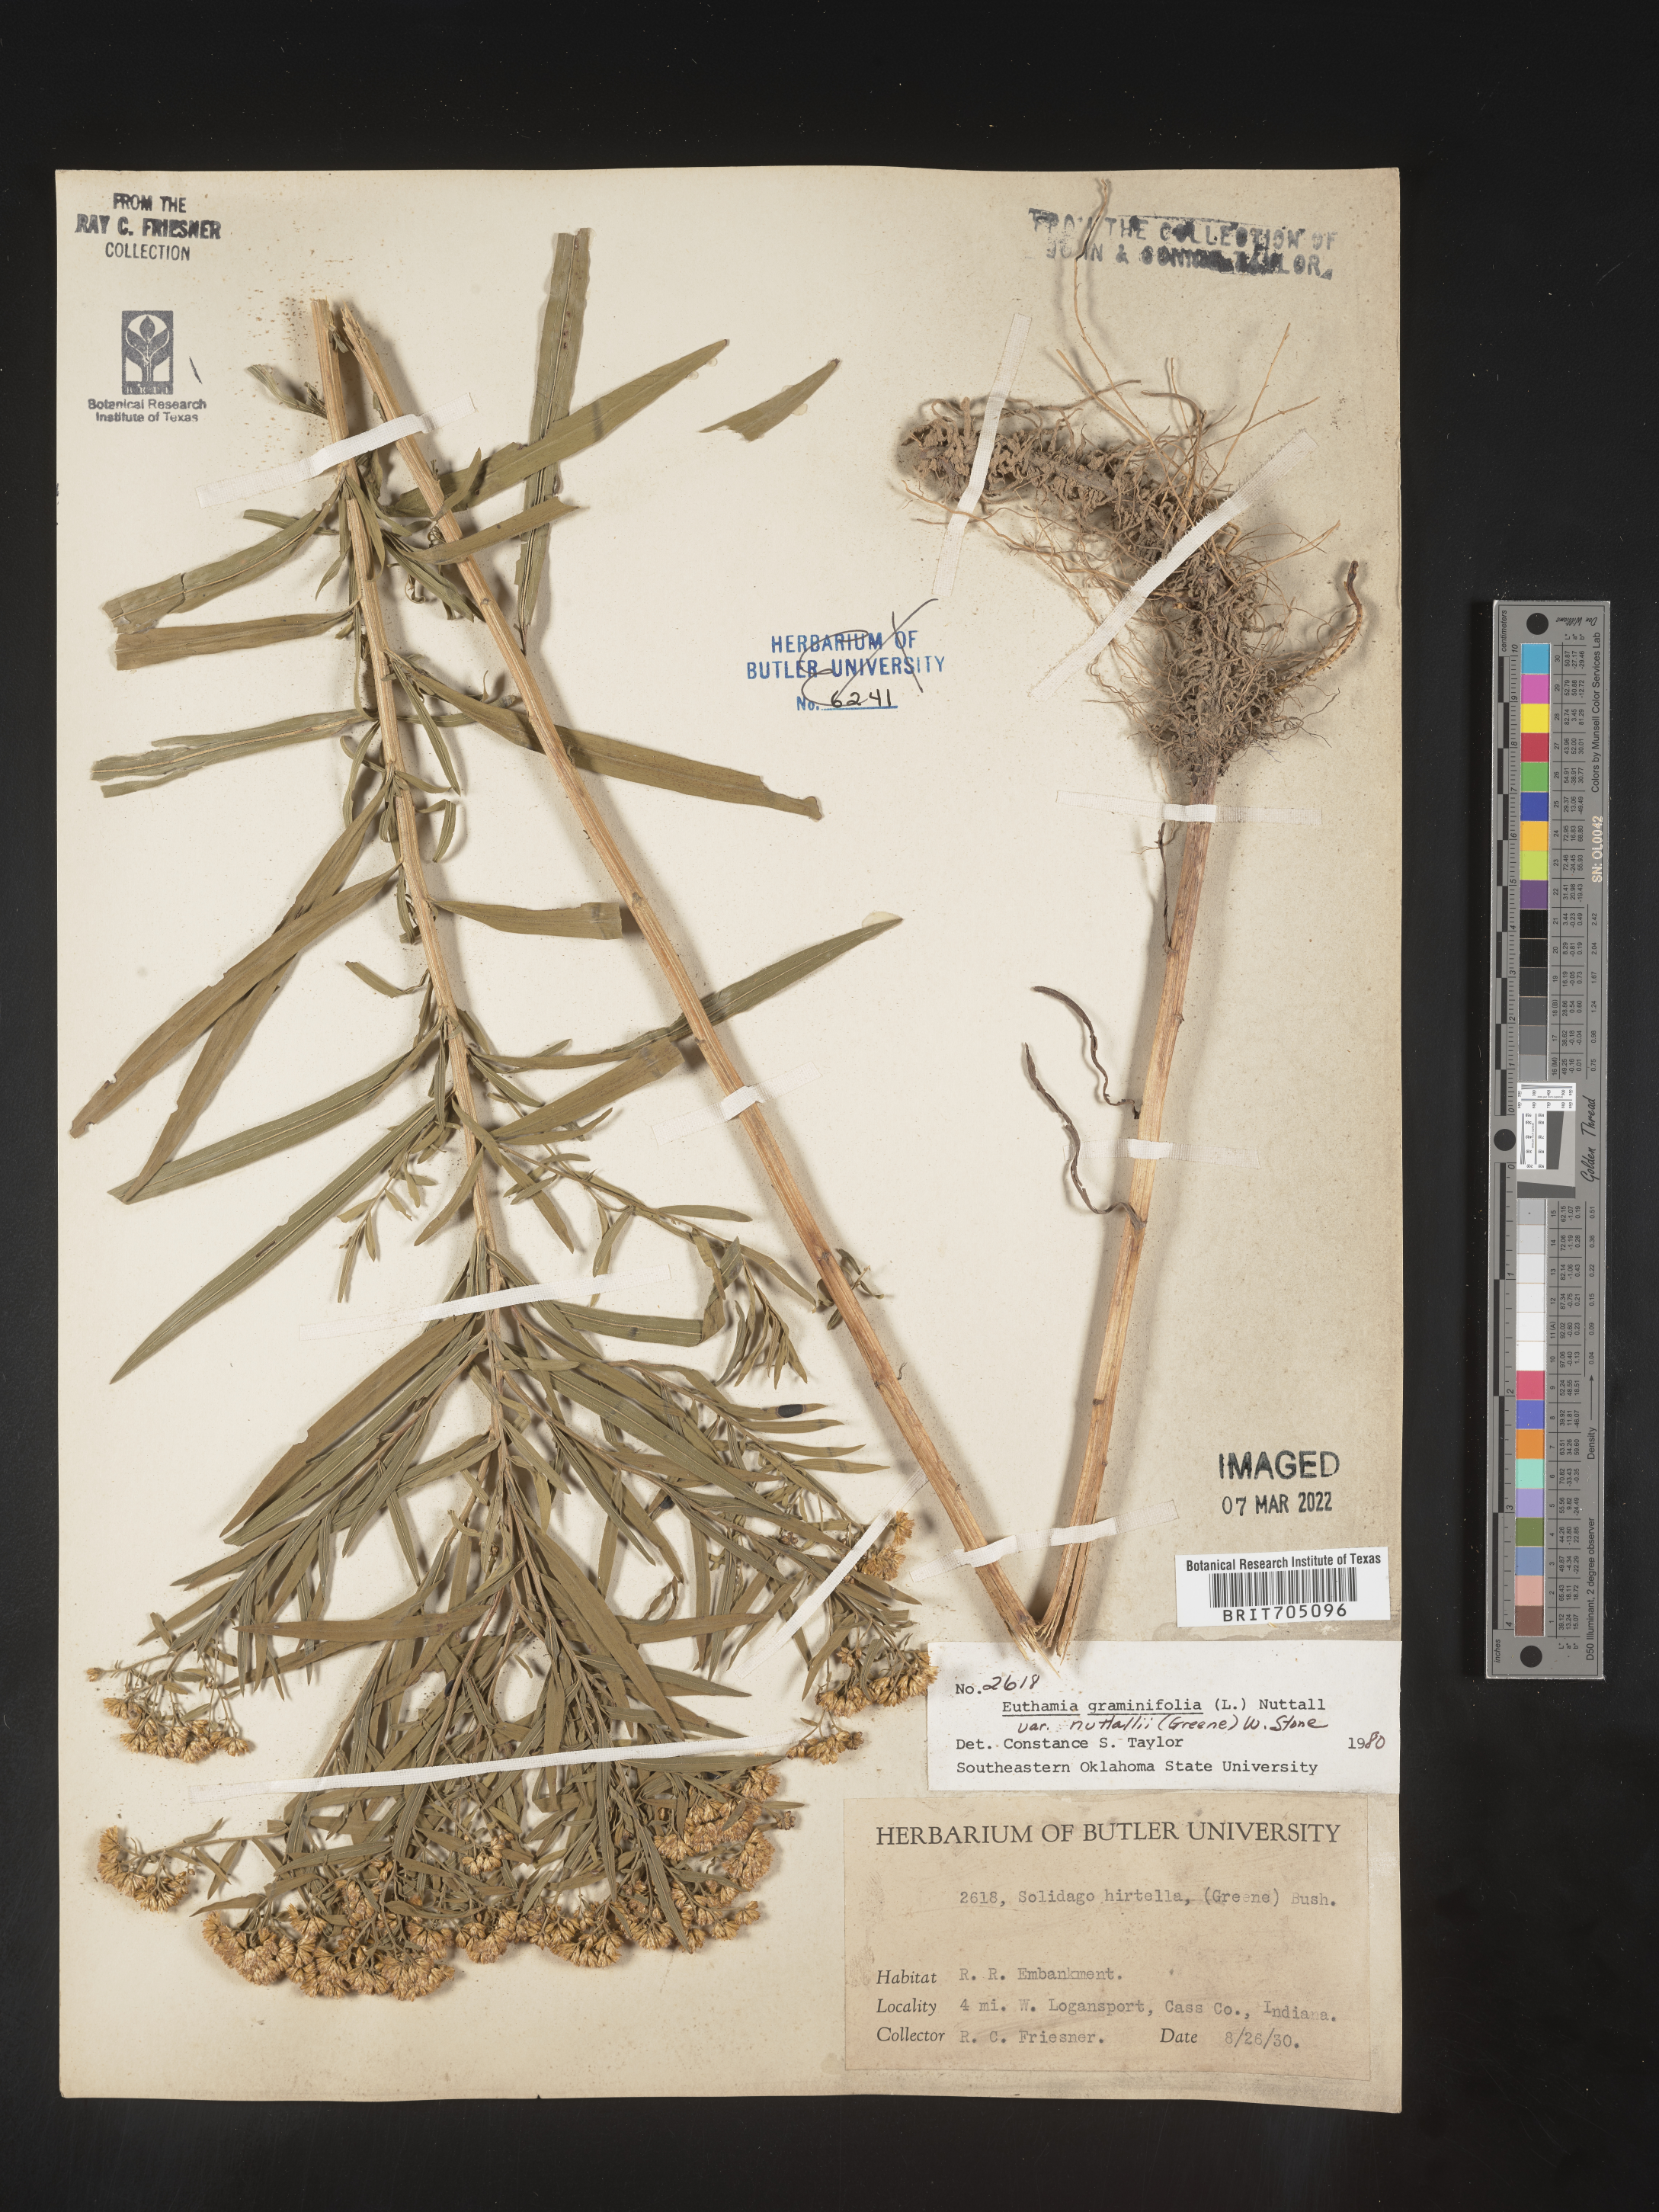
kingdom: Plantae
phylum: Tracheophyta
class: Magnoliopsida
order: Asterales
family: Asteraceae
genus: Euthamia
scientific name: Euthamia graminifolia
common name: Common goldentop
